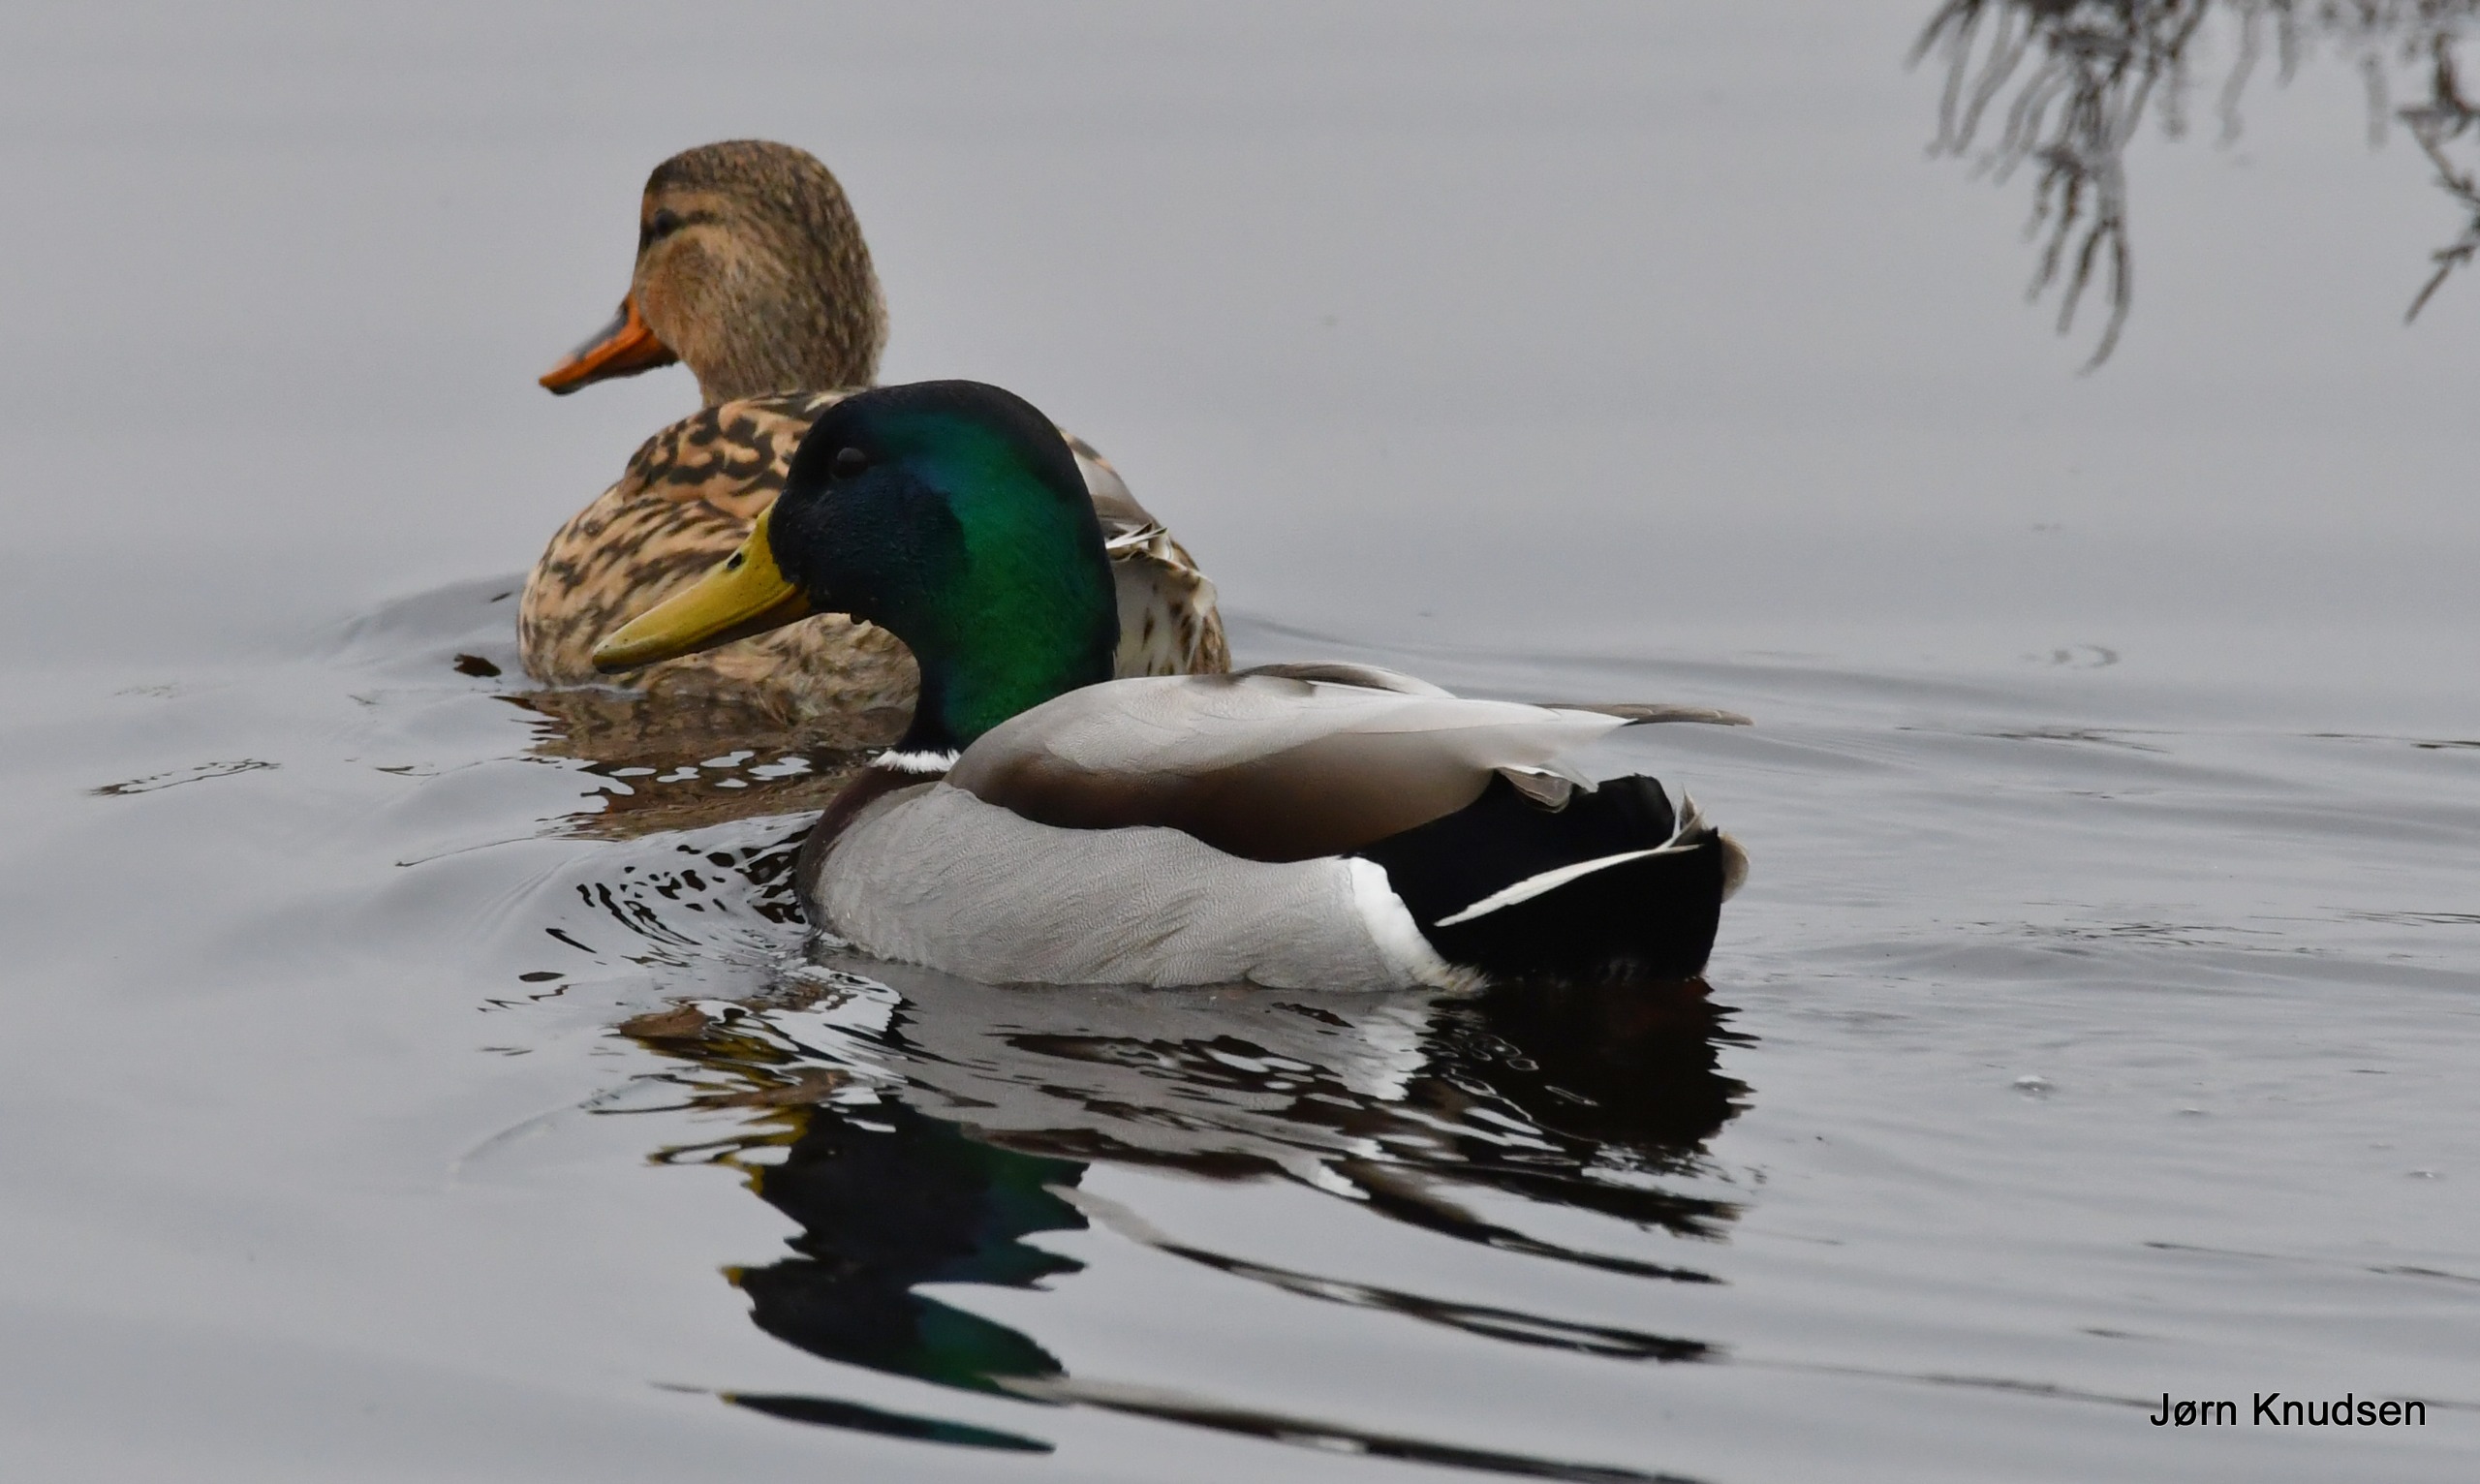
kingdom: Animalia
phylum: Chordata
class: Aves
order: Anseriformes
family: Anatidae
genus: Anas
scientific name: Anas platyrhynchos
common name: Gråand
